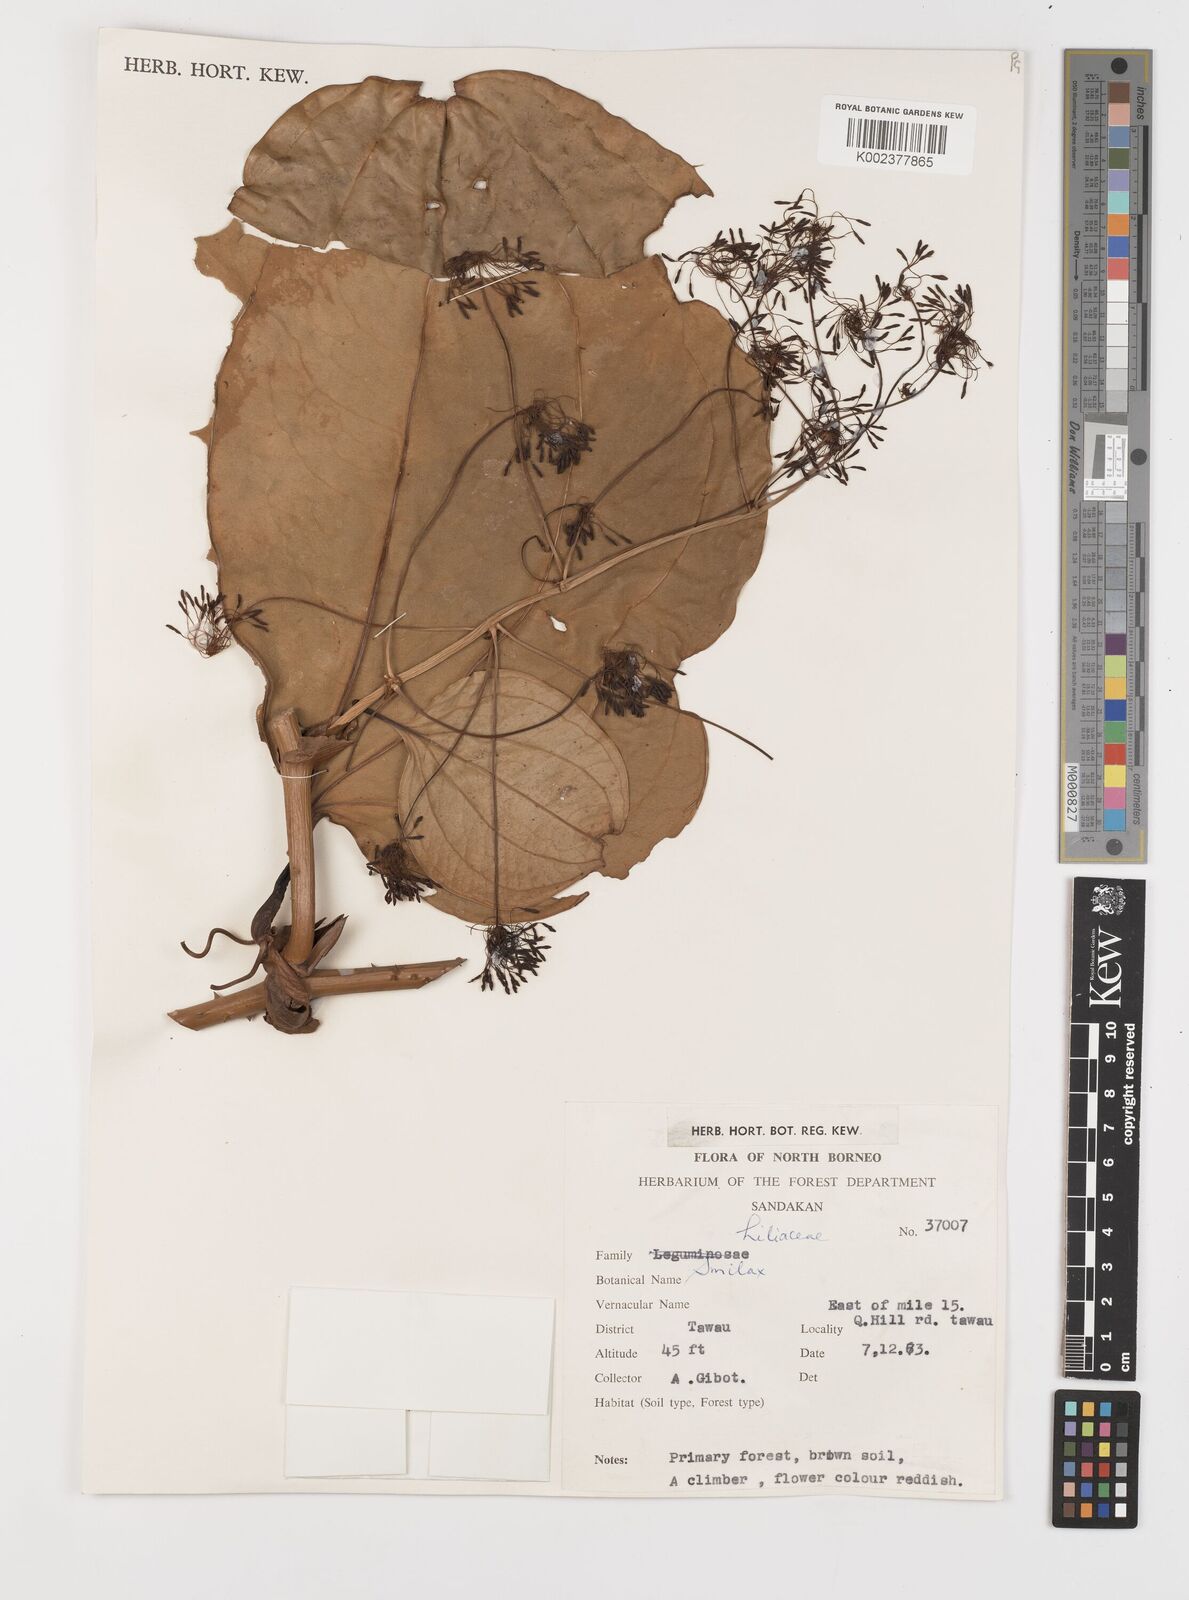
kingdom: Plantae
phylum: Tracheophyta
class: Liliopsida
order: Liliales
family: Smilacaceae
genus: Smilax
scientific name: Smilax
